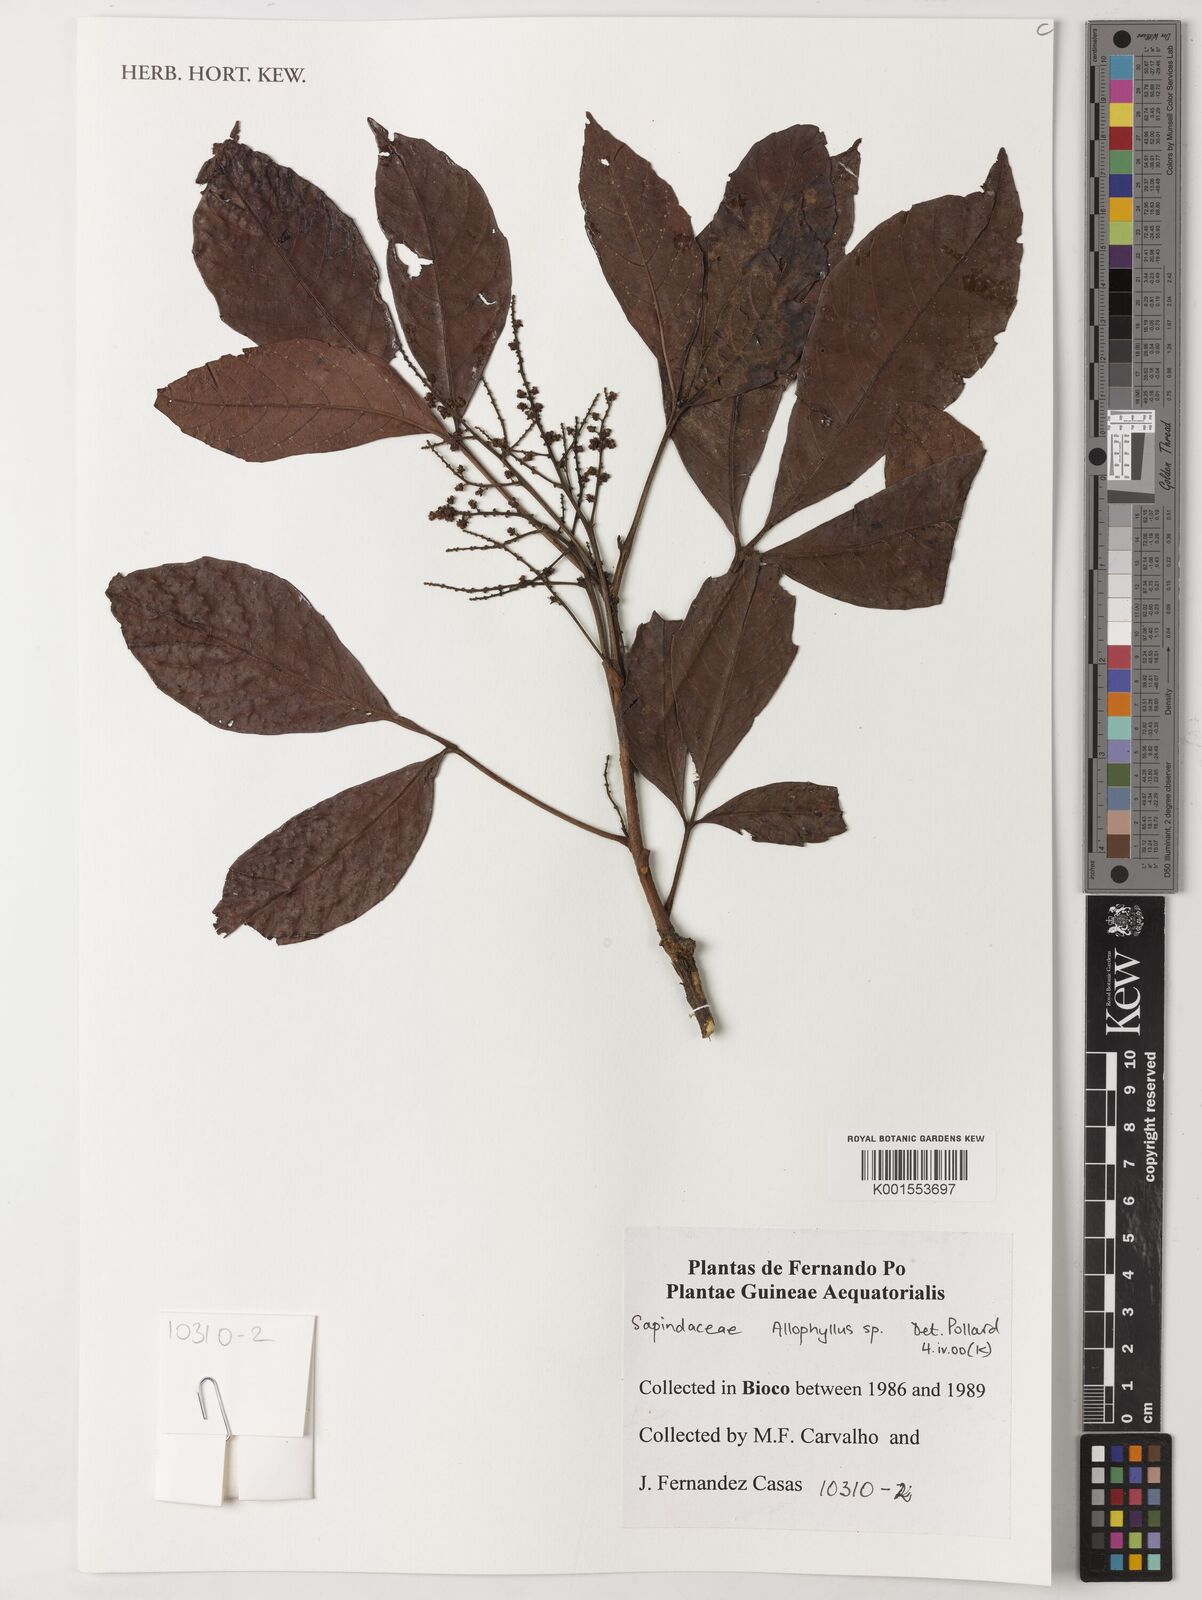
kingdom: Plantae
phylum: Tracheophyta
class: Magnoliopsida
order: Sapindales
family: Sapindaceae
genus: Allophylus
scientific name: Allophylus
